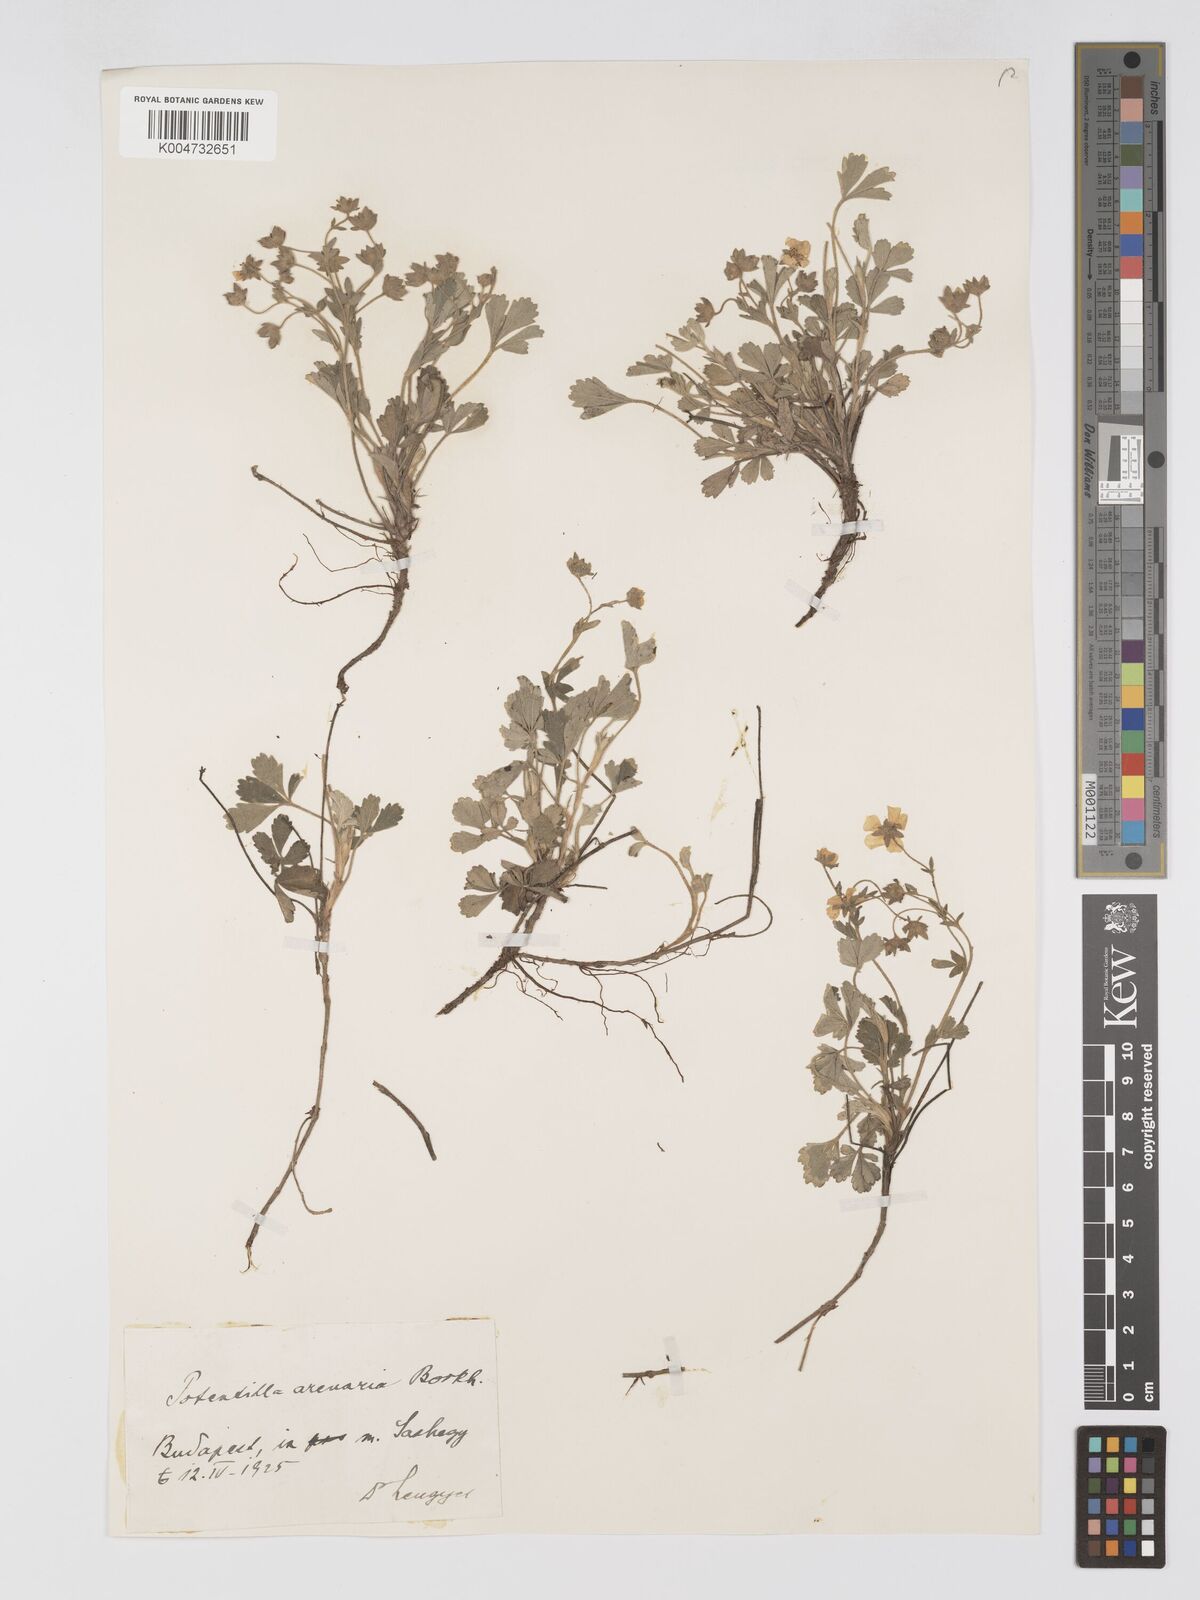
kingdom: Plantae
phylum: Tracheophyta
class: Magnoliopsida
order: Rosales
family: Rosaceae
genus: Potentilla
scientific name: Potentilla cinerea
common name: Ashy cinquefoil
